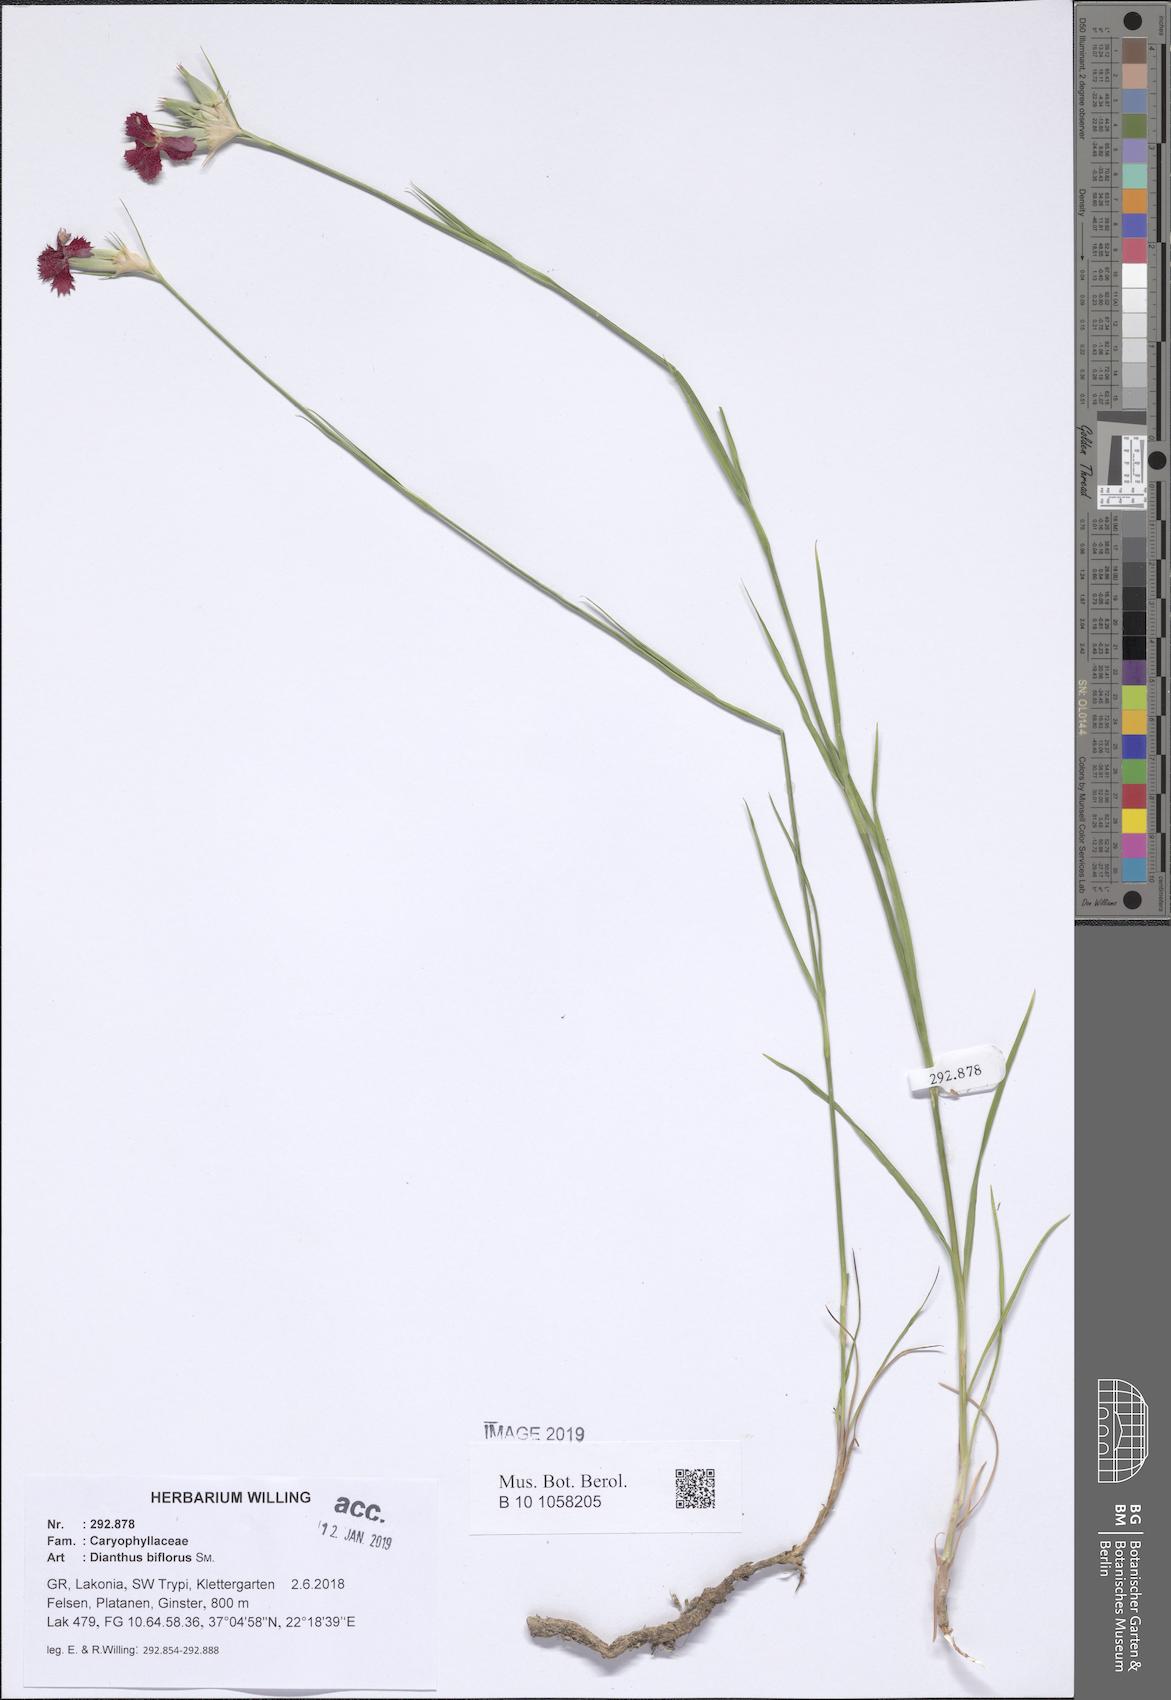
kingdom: Plantae
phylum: Tracheophyta
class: Magnoliopsida
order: Caryophyllales
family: Caryophyllaceae
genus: Dianthus
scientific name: Dianthus biflorus
